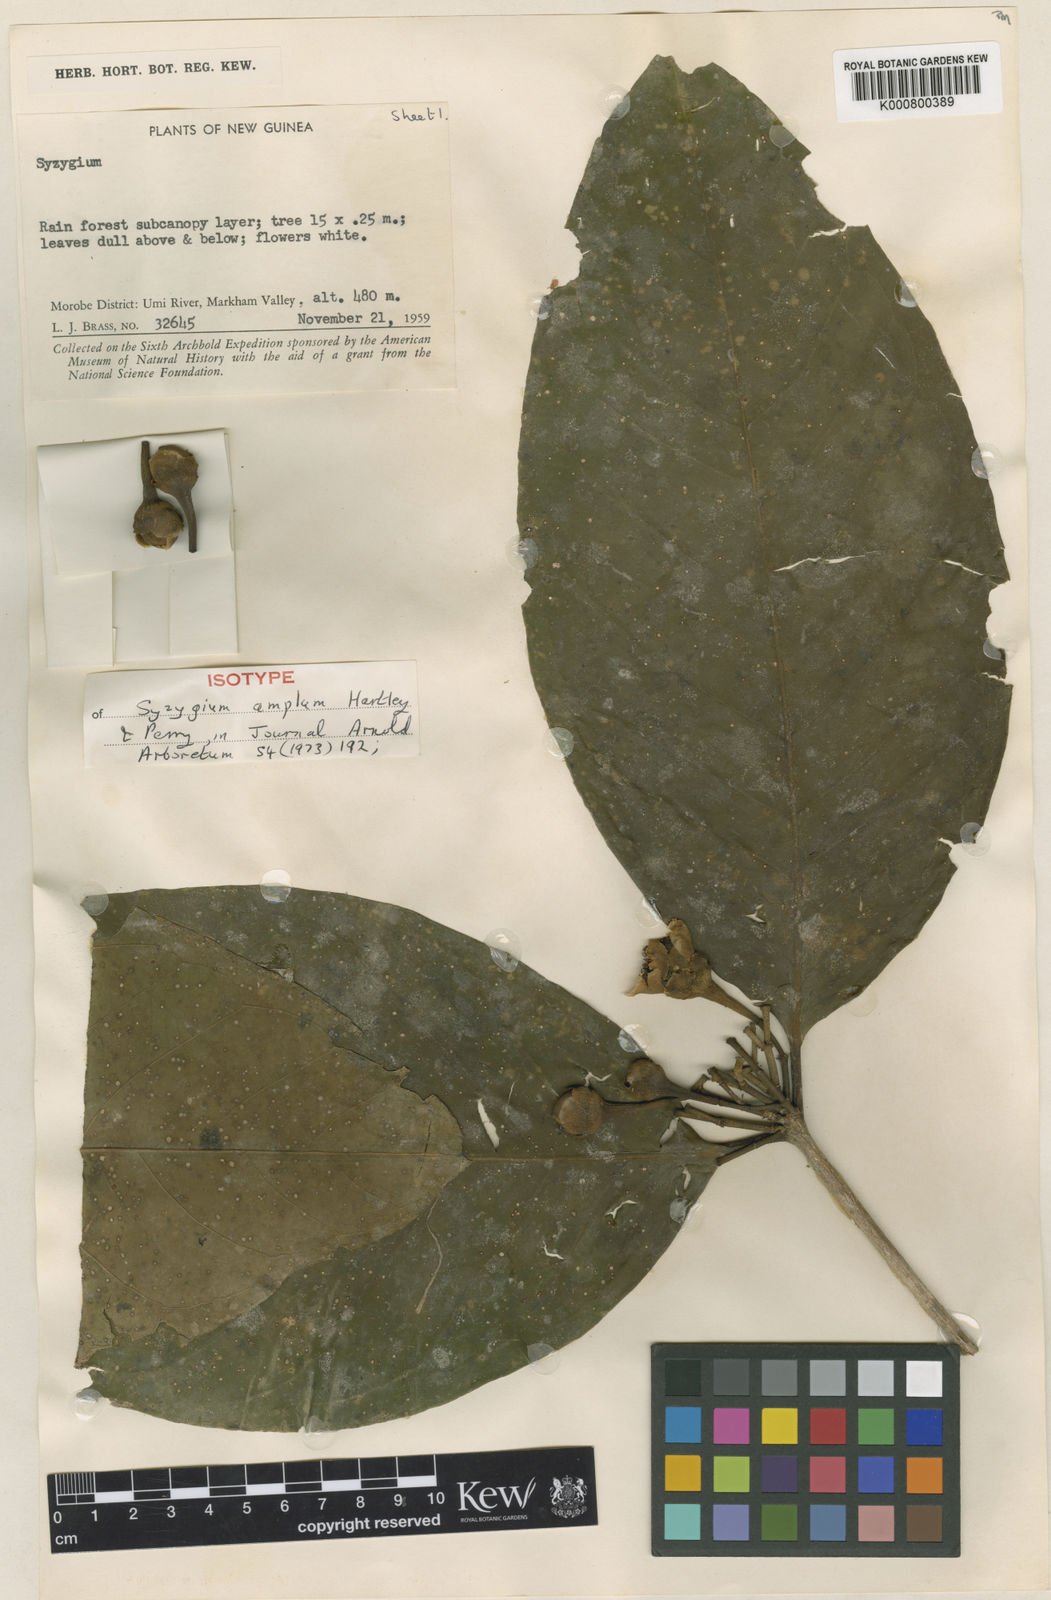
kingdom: Plantae
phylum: Tracheophyta
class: Magnoliopsida
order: Myrtales
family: Myrtaceae
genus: Syzygium
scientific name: Syzygium amplum
